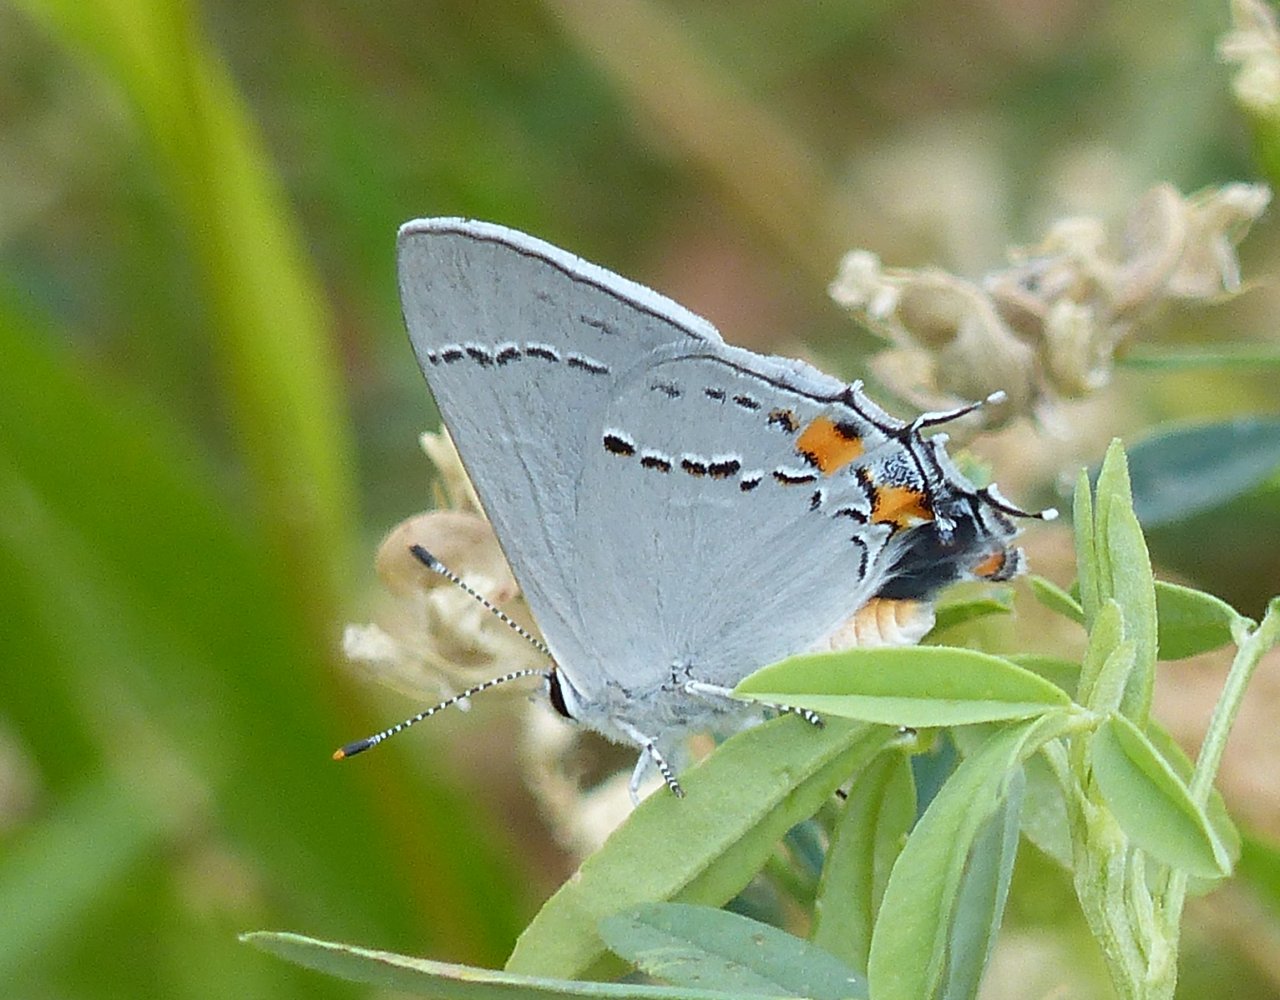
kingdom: Animalia
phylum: Arthropoda
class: Insecta
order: Lepidoptera
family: Lycaenidae
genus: Strymon
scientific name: Strymon melinus
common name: Gray Hairstreak
